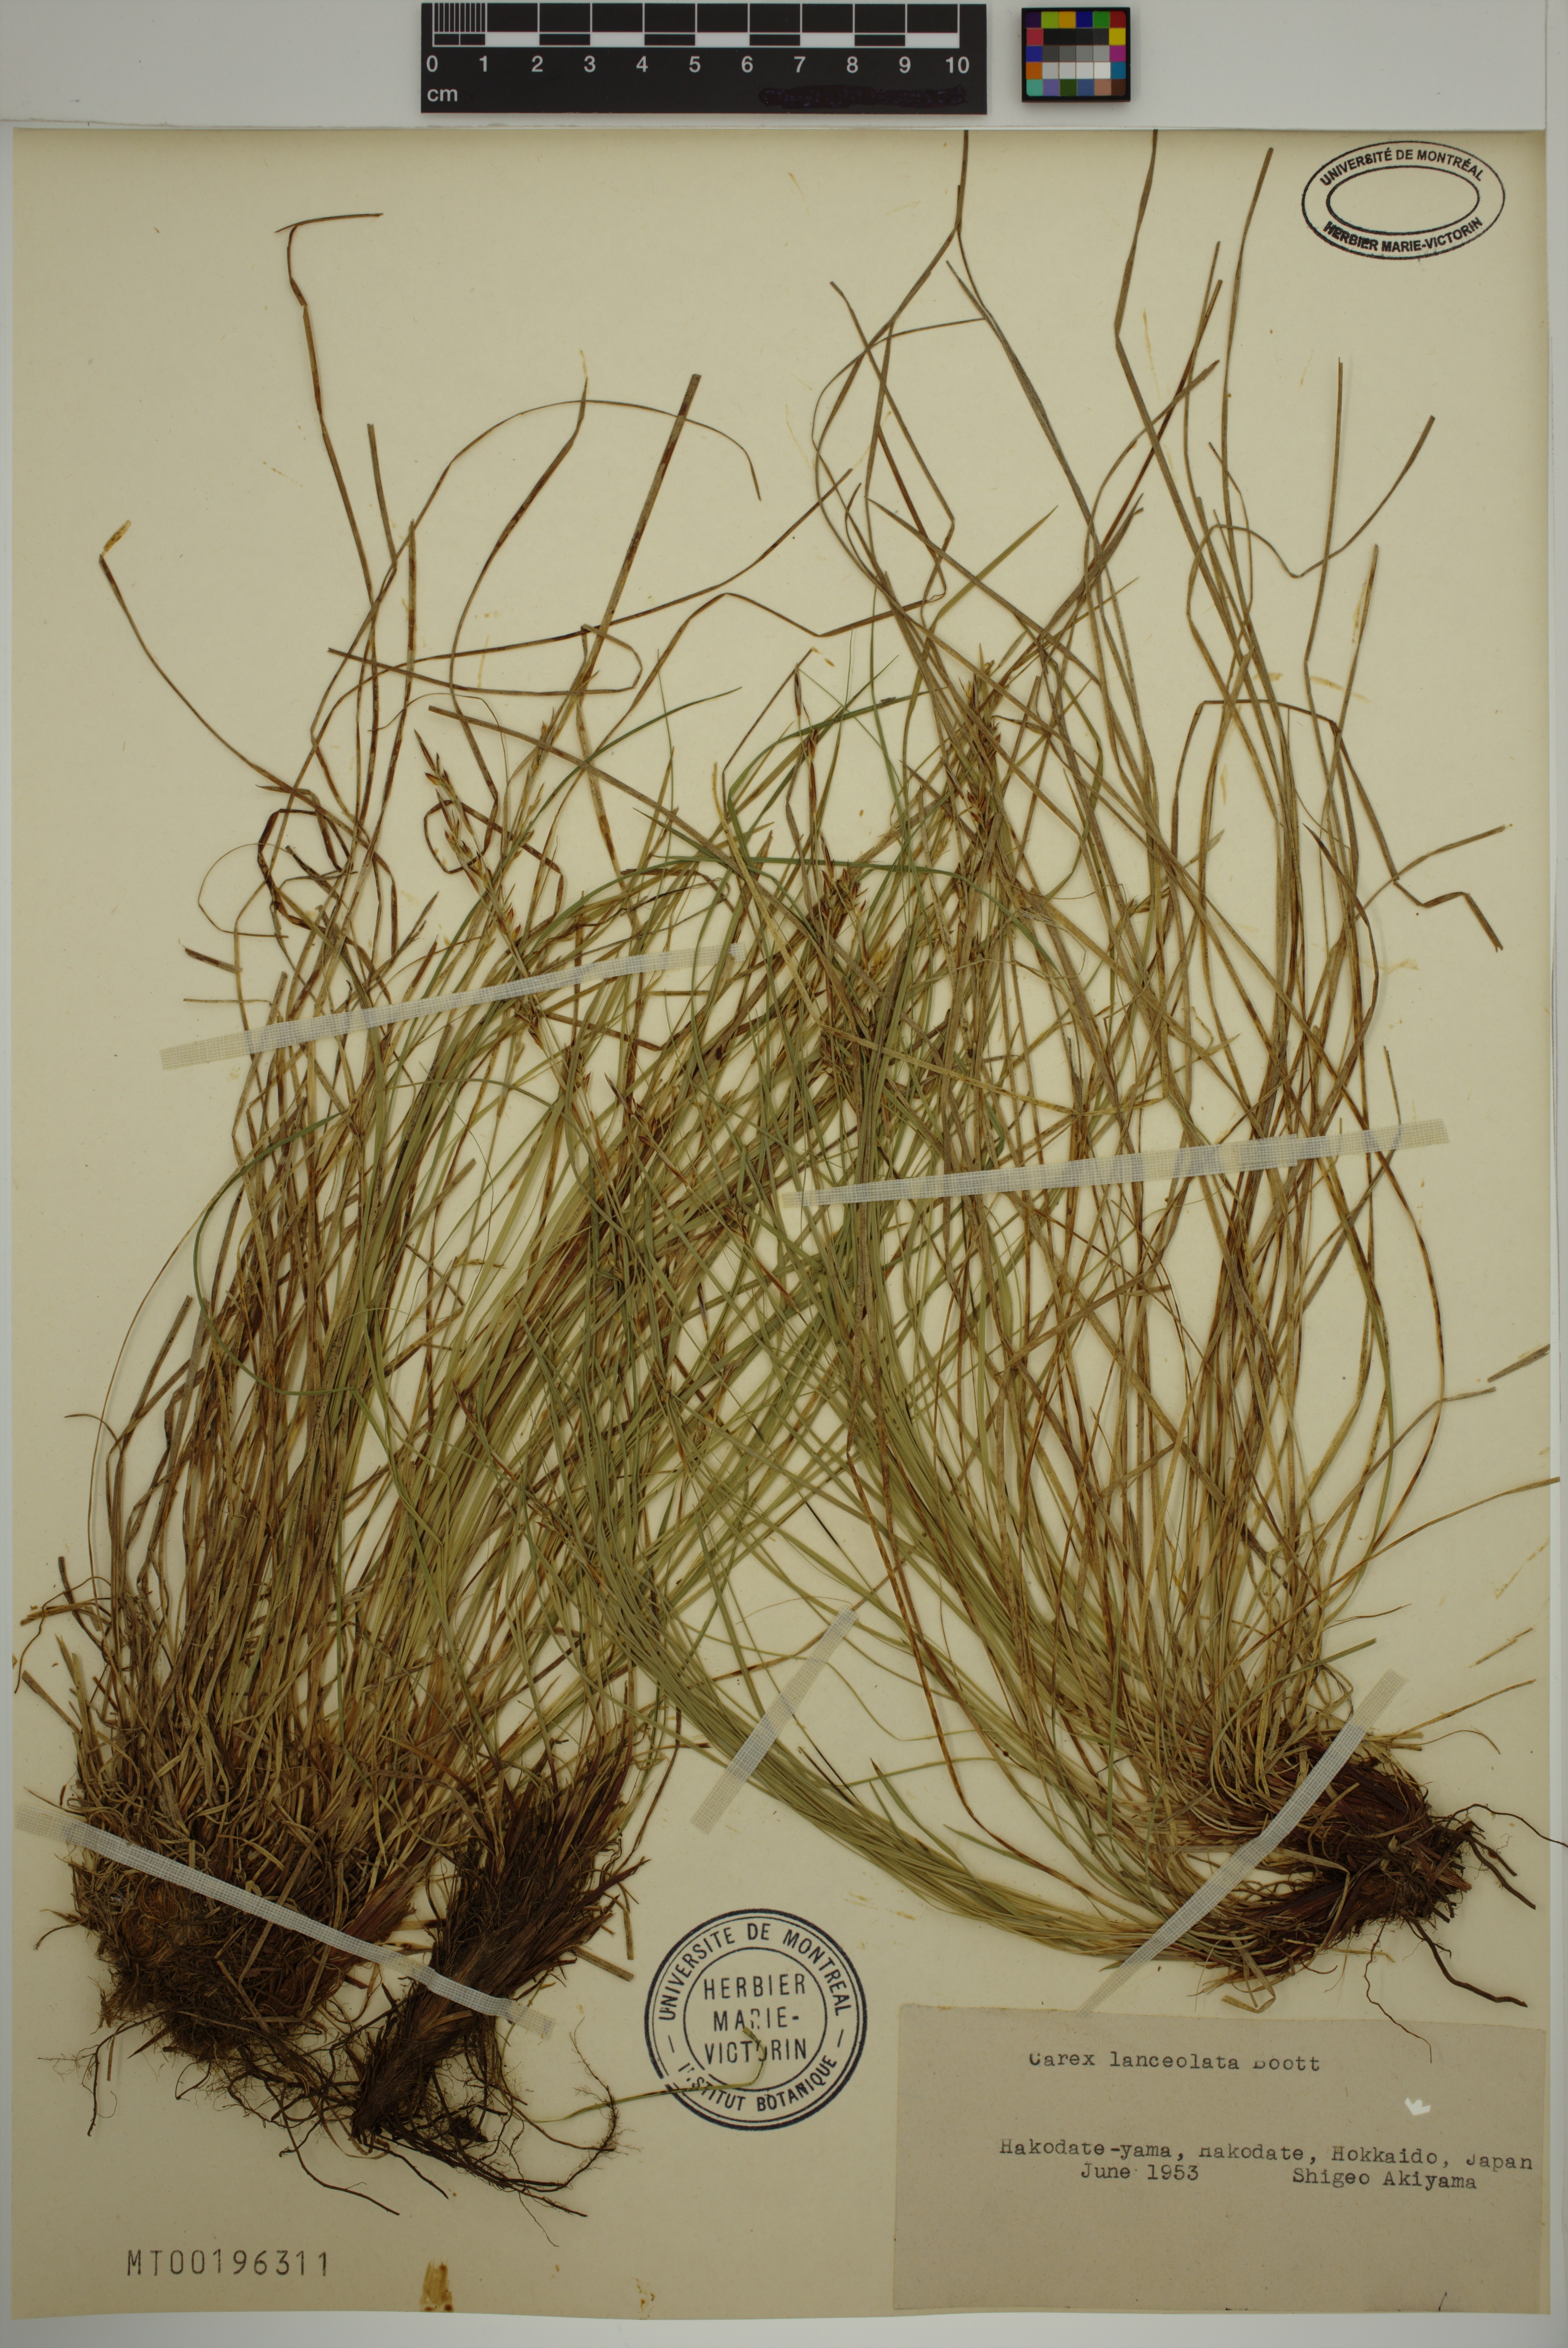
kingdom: Plantae
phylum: Tracheophyta
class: Liliopsida
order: Poales
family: Cyperaceae
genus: Carex
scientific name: Carex lanceolata
